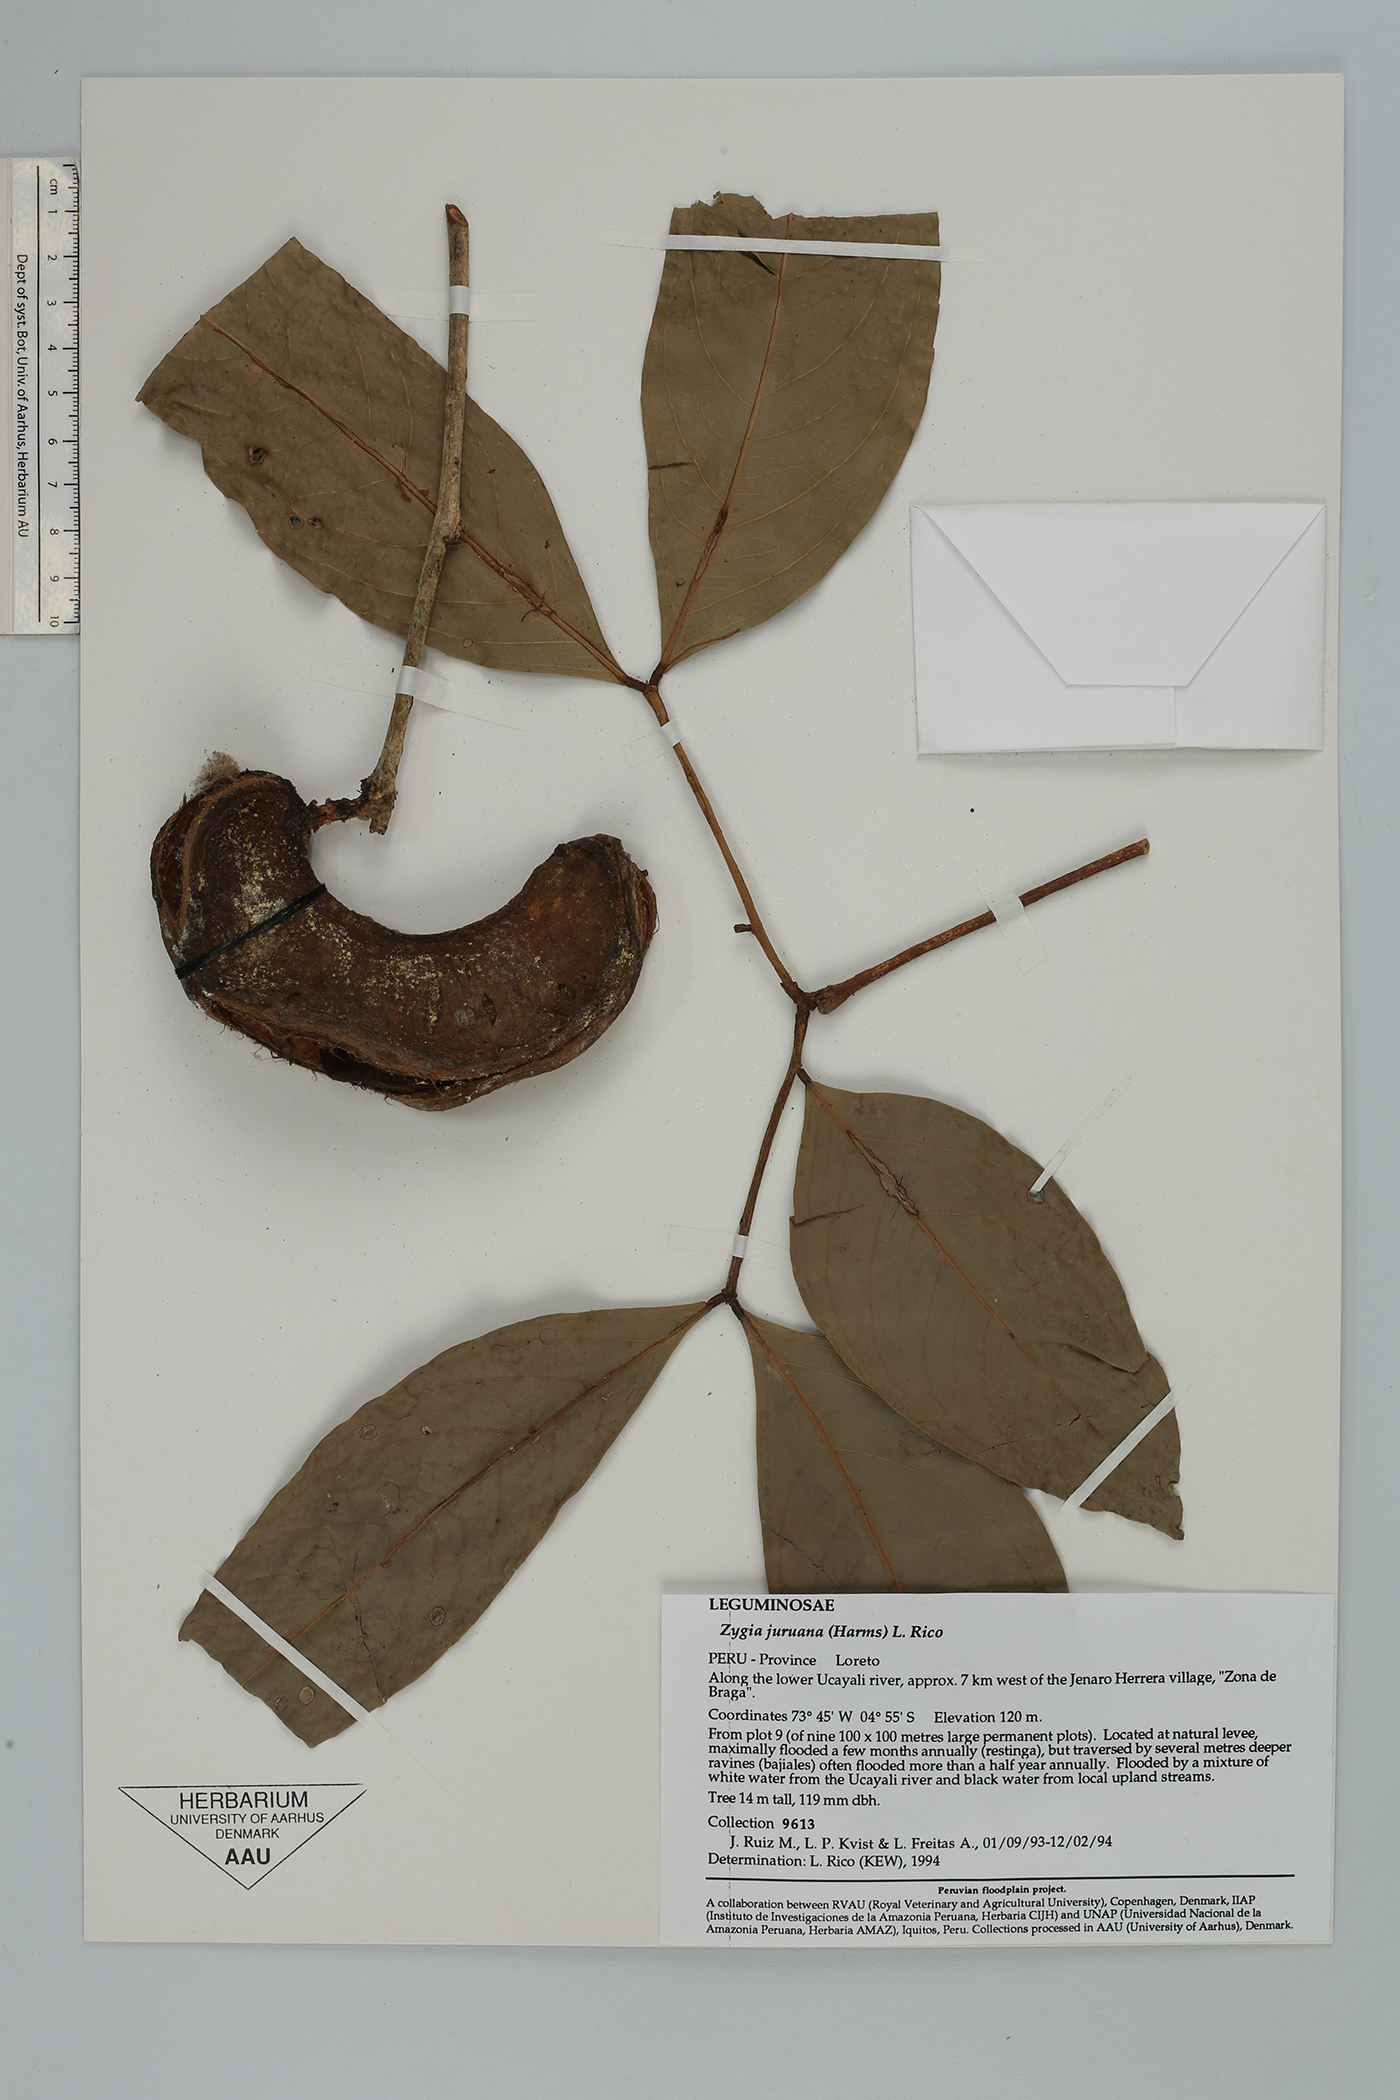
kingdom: Plantae
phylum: Tracheophyta
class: Magnoliopsida
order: Fabales
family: Fabaceae
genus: Zygia
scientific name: Zygia juruana
